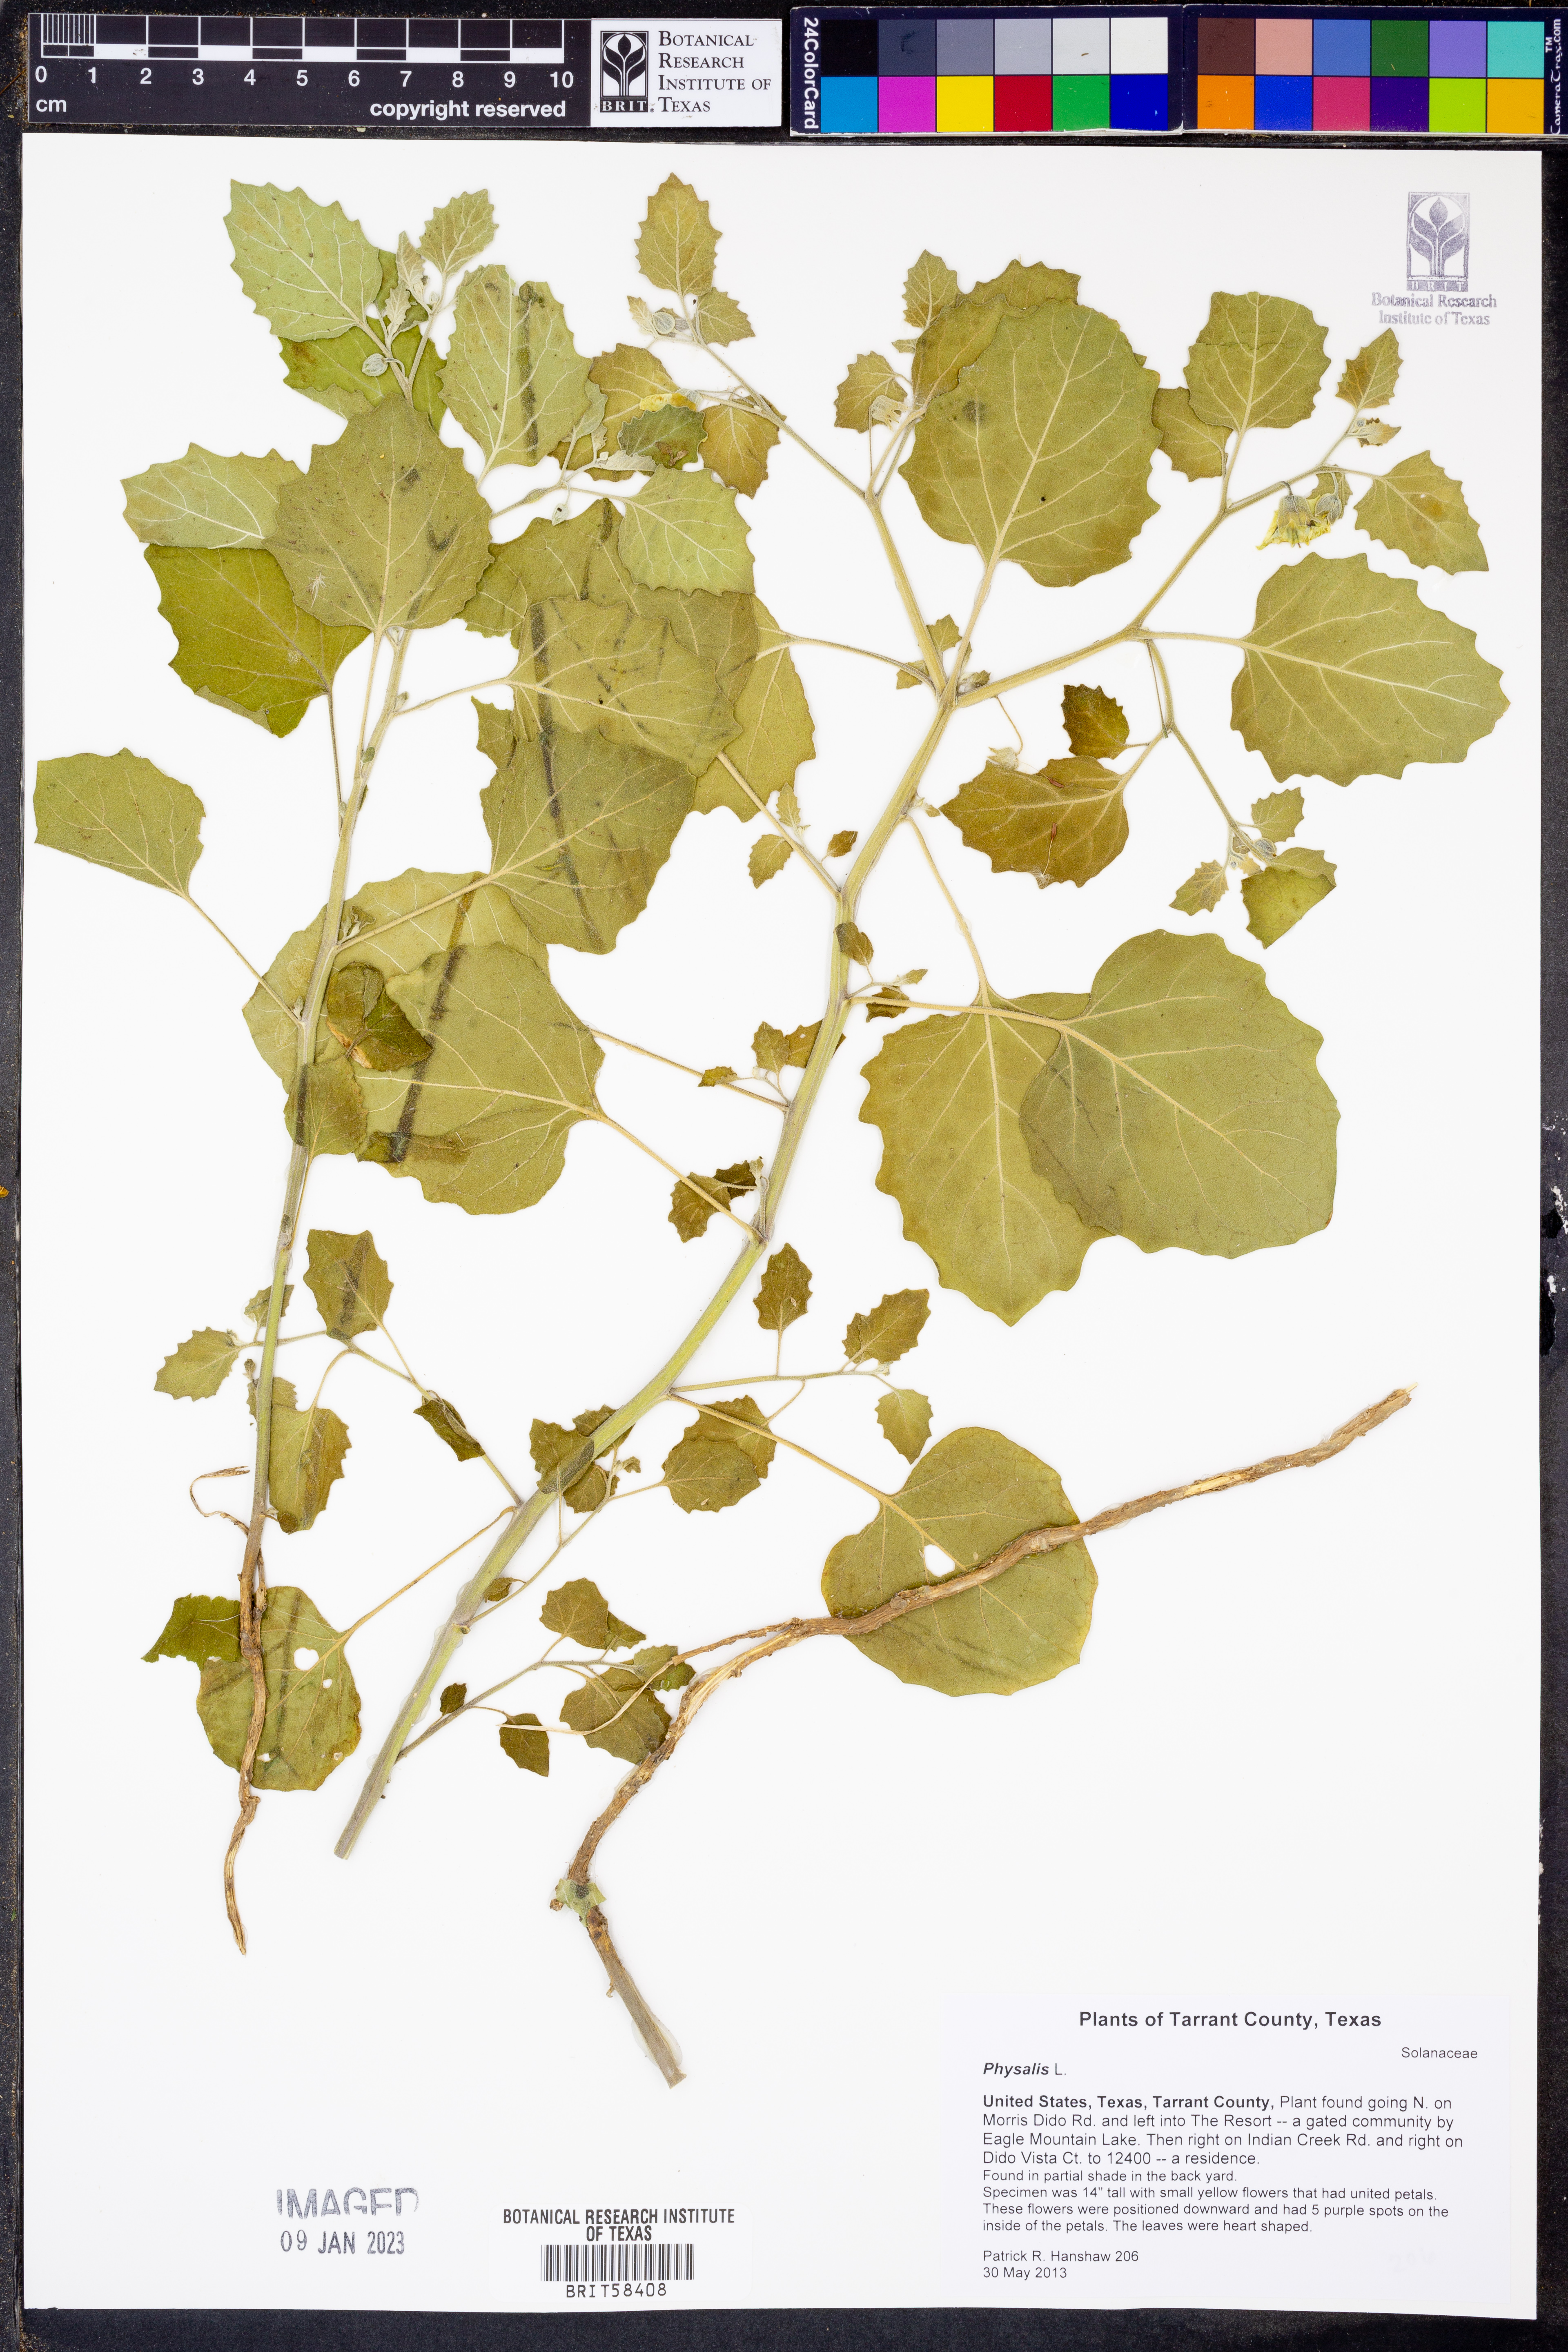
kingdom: Plantae
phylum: Tracheophyta
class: Magnoliopsida
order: Solanales
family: Solanaceae
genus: Physalis
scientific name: Physalis
